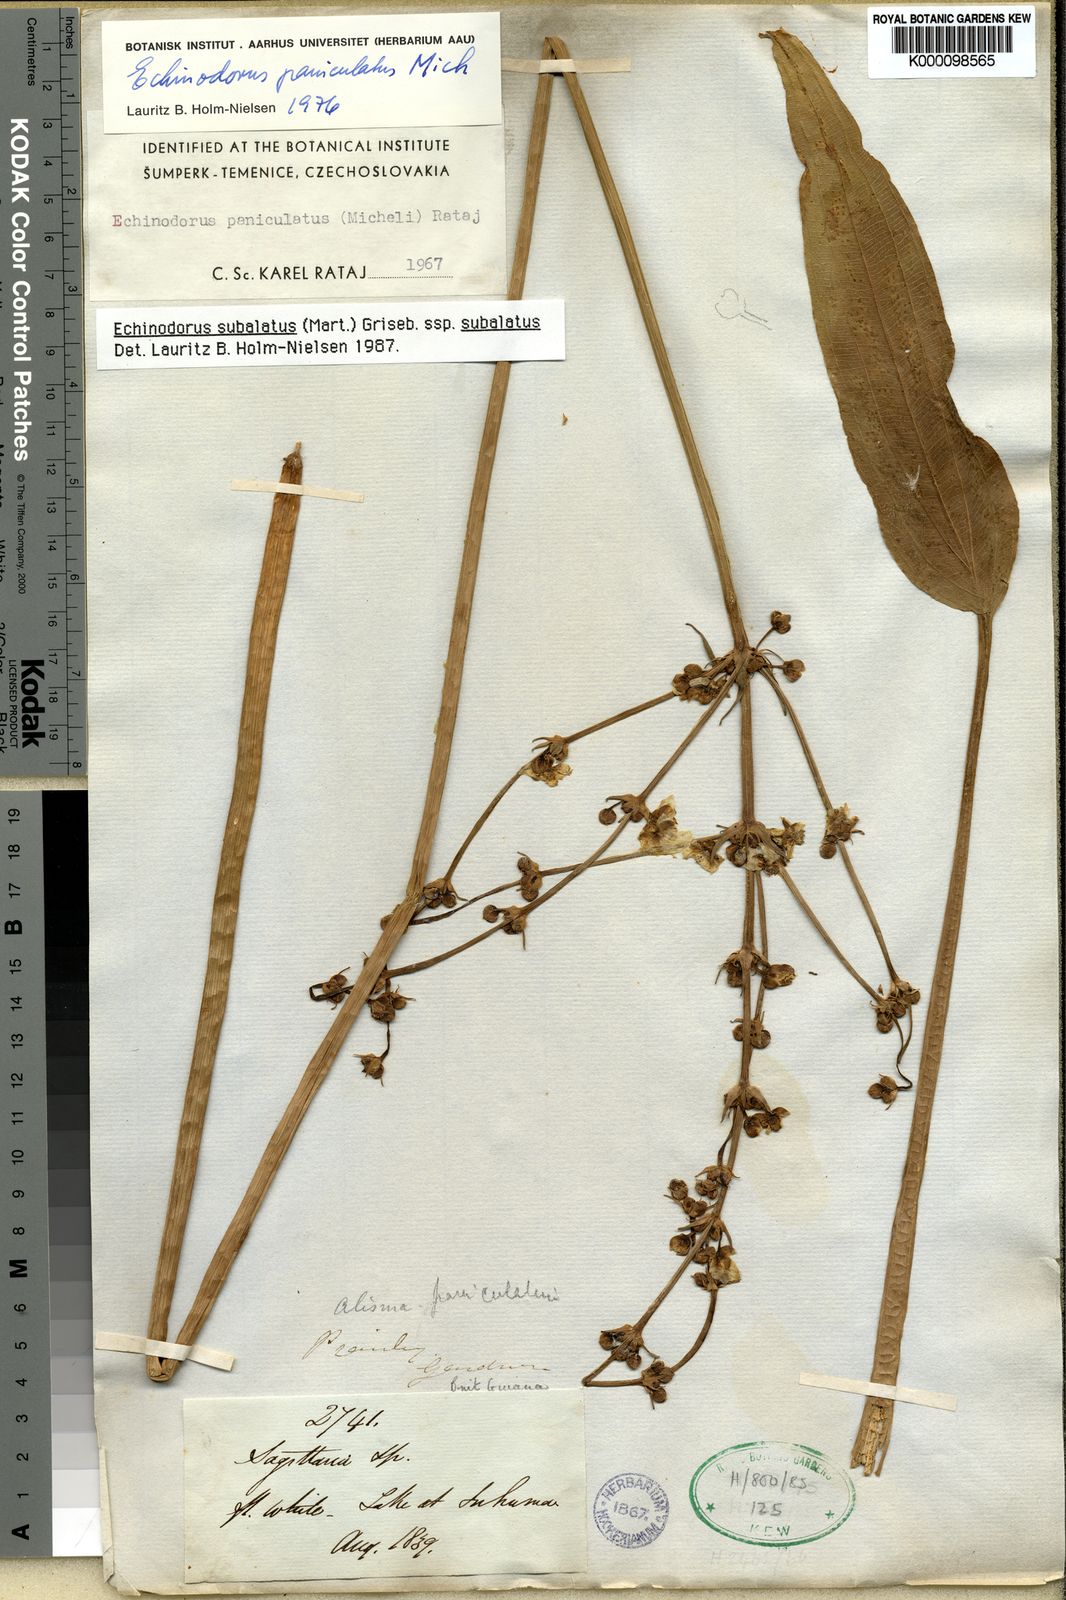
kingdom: Plantae
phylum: Tracheophyta
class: Liliopsida
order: Alismatales
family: Alismataceae
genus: Aquarius
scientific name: Aquarius subulatus
